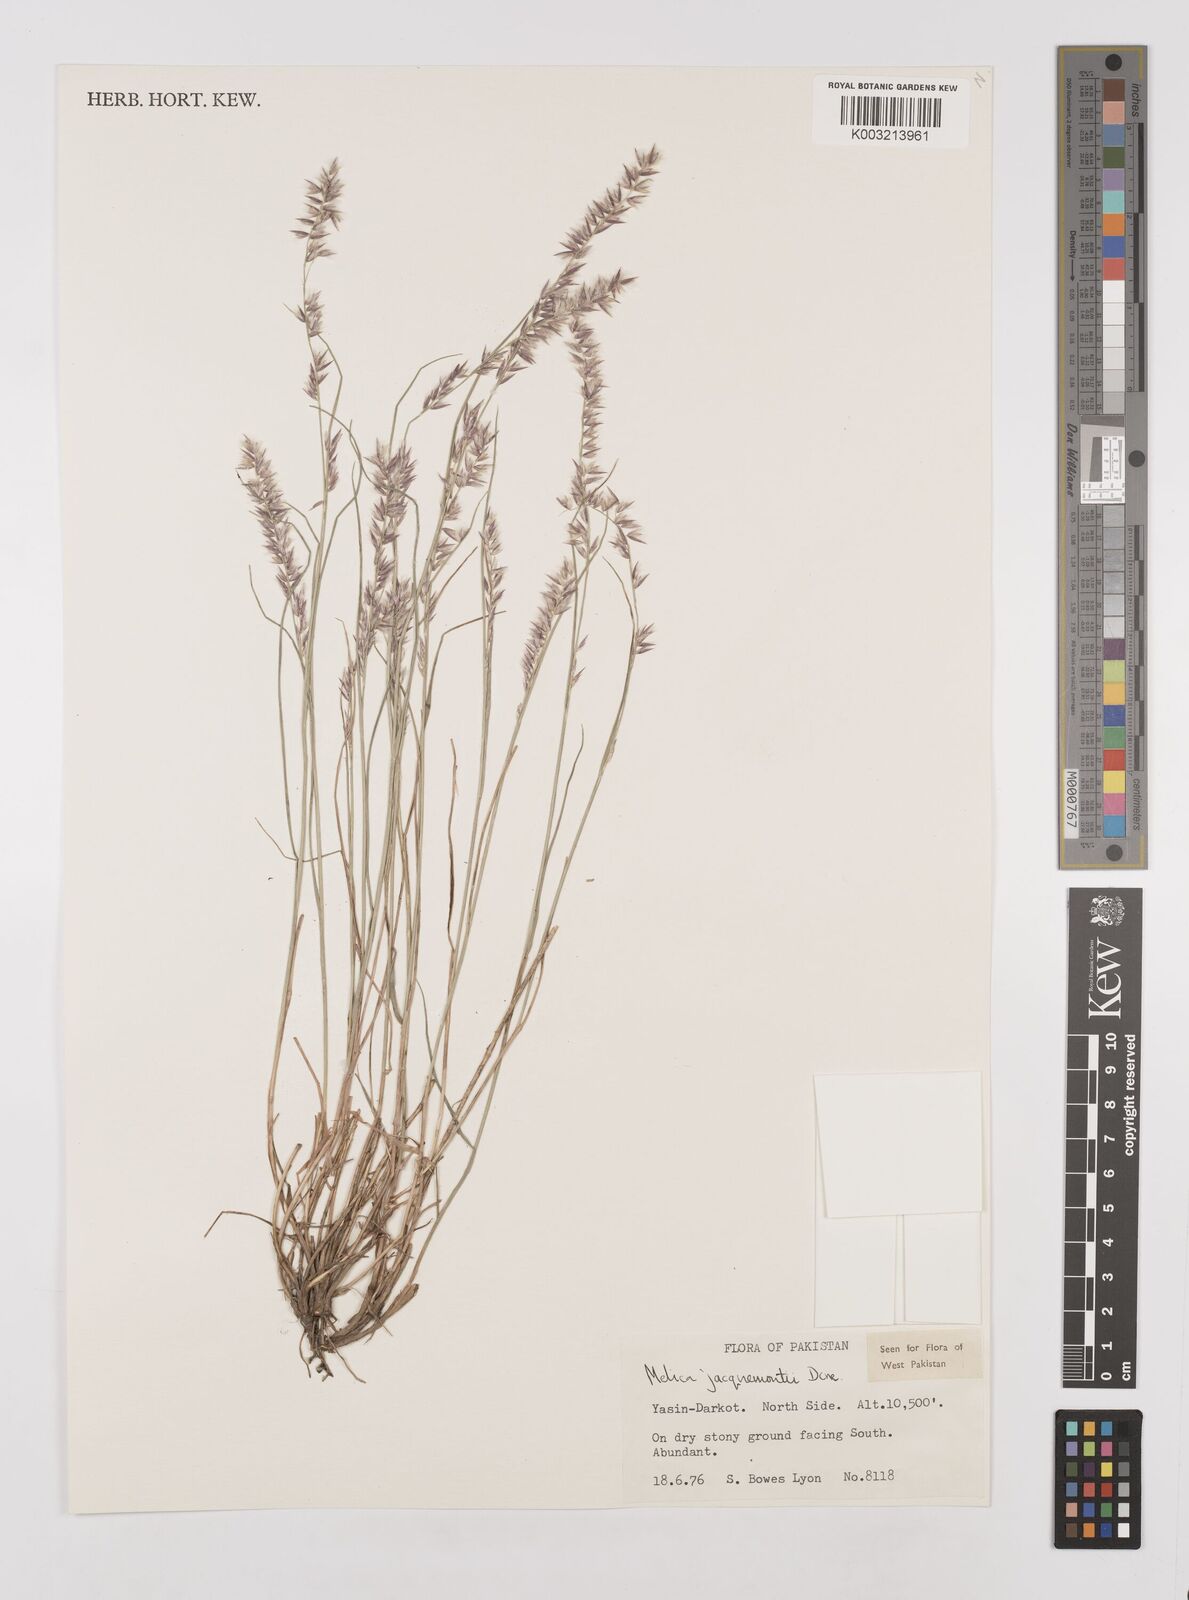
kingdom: Plantae
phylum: Tracheophyta
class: Liliopsida
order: Poales
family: Poaceae
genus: Melica
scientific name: Melica persica
